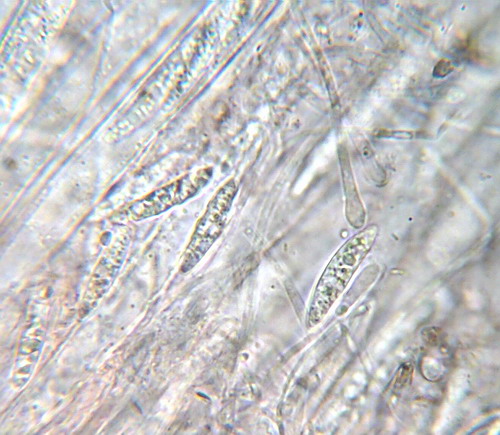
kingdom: Fungi
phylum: Ascomycota
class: Leotiomycetes
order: Helotiales
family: Gelatinodiscaceae
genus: Ascocoryne
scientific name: Ascocoryne cylichnium
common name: stor sejskive
